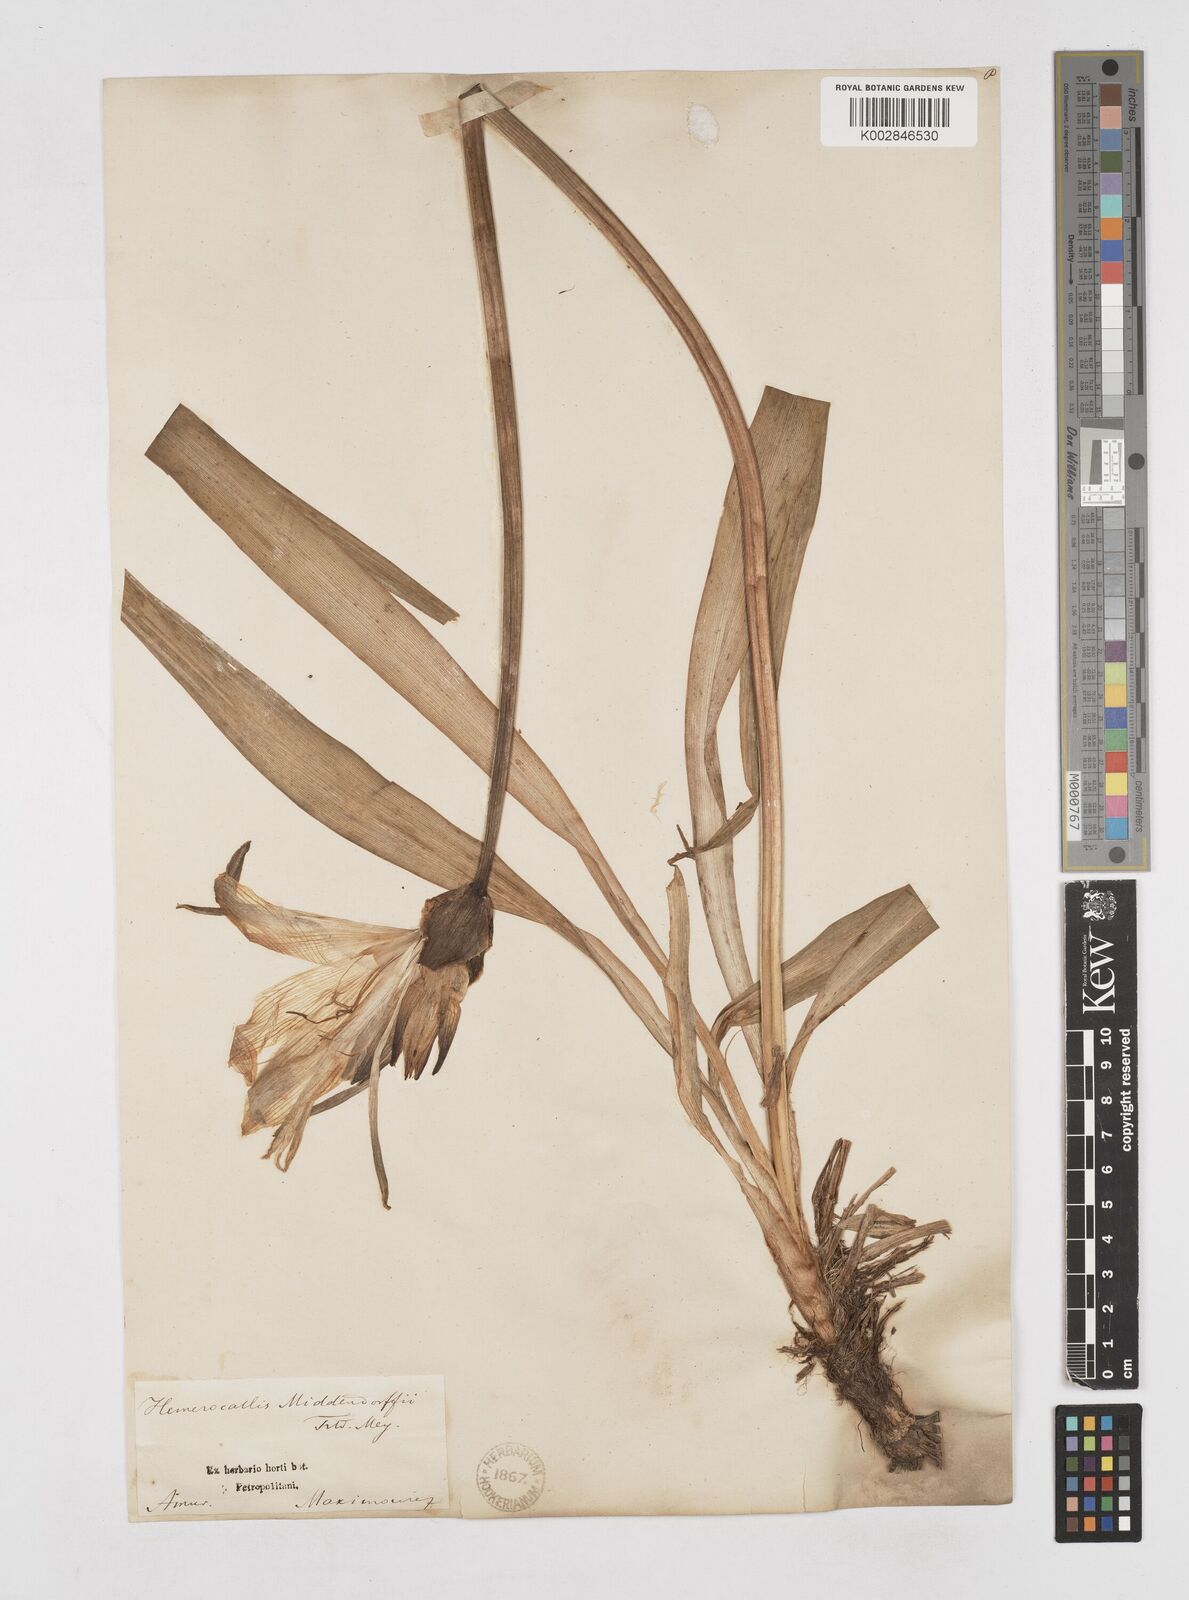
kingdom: Plantae
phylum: Tracheophyta
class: Liliopsida
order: Asparagales
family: Asphodelaceae
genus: Hemerocallis
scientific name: Hemerocallis middendorffii
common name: Amur day-lily
